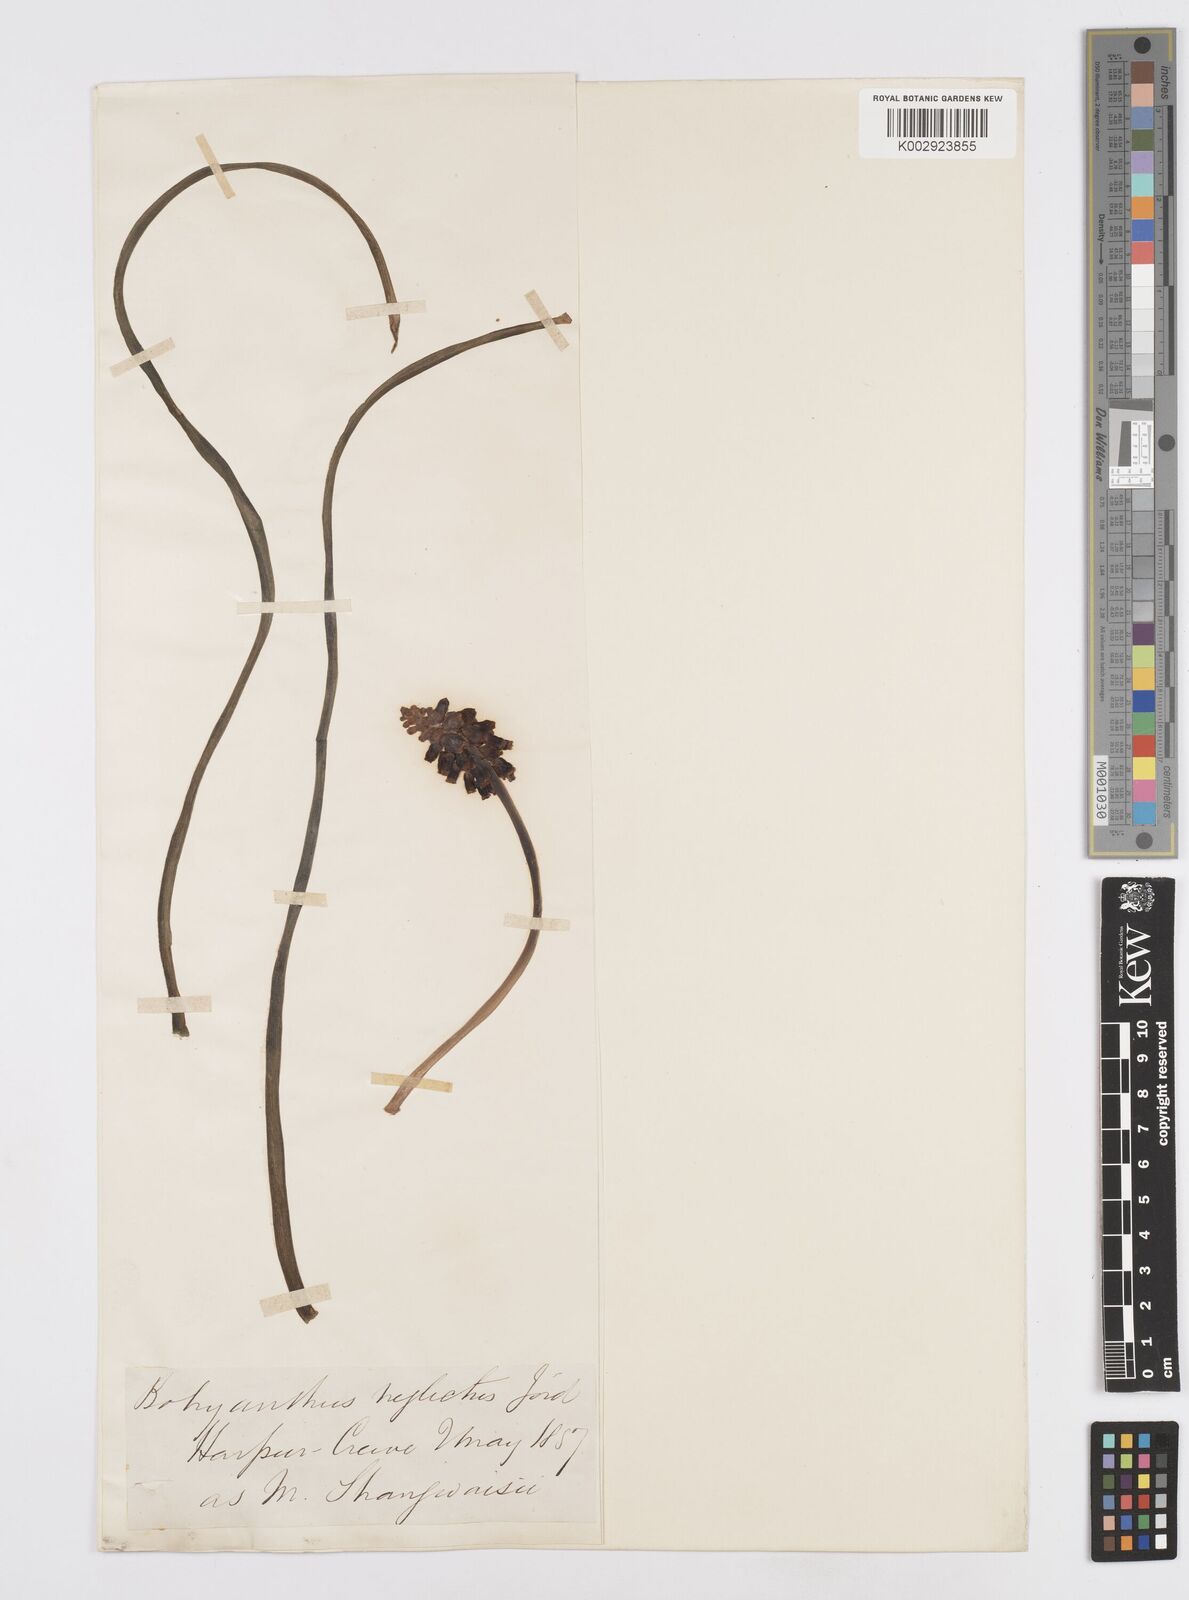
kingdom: Plantae
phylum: Tracheophyta
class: Liliopsida
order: Asparagales
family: Asparagaceae
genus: Muscari
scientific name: Muscari neglectum
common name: Grape-hyacinth
